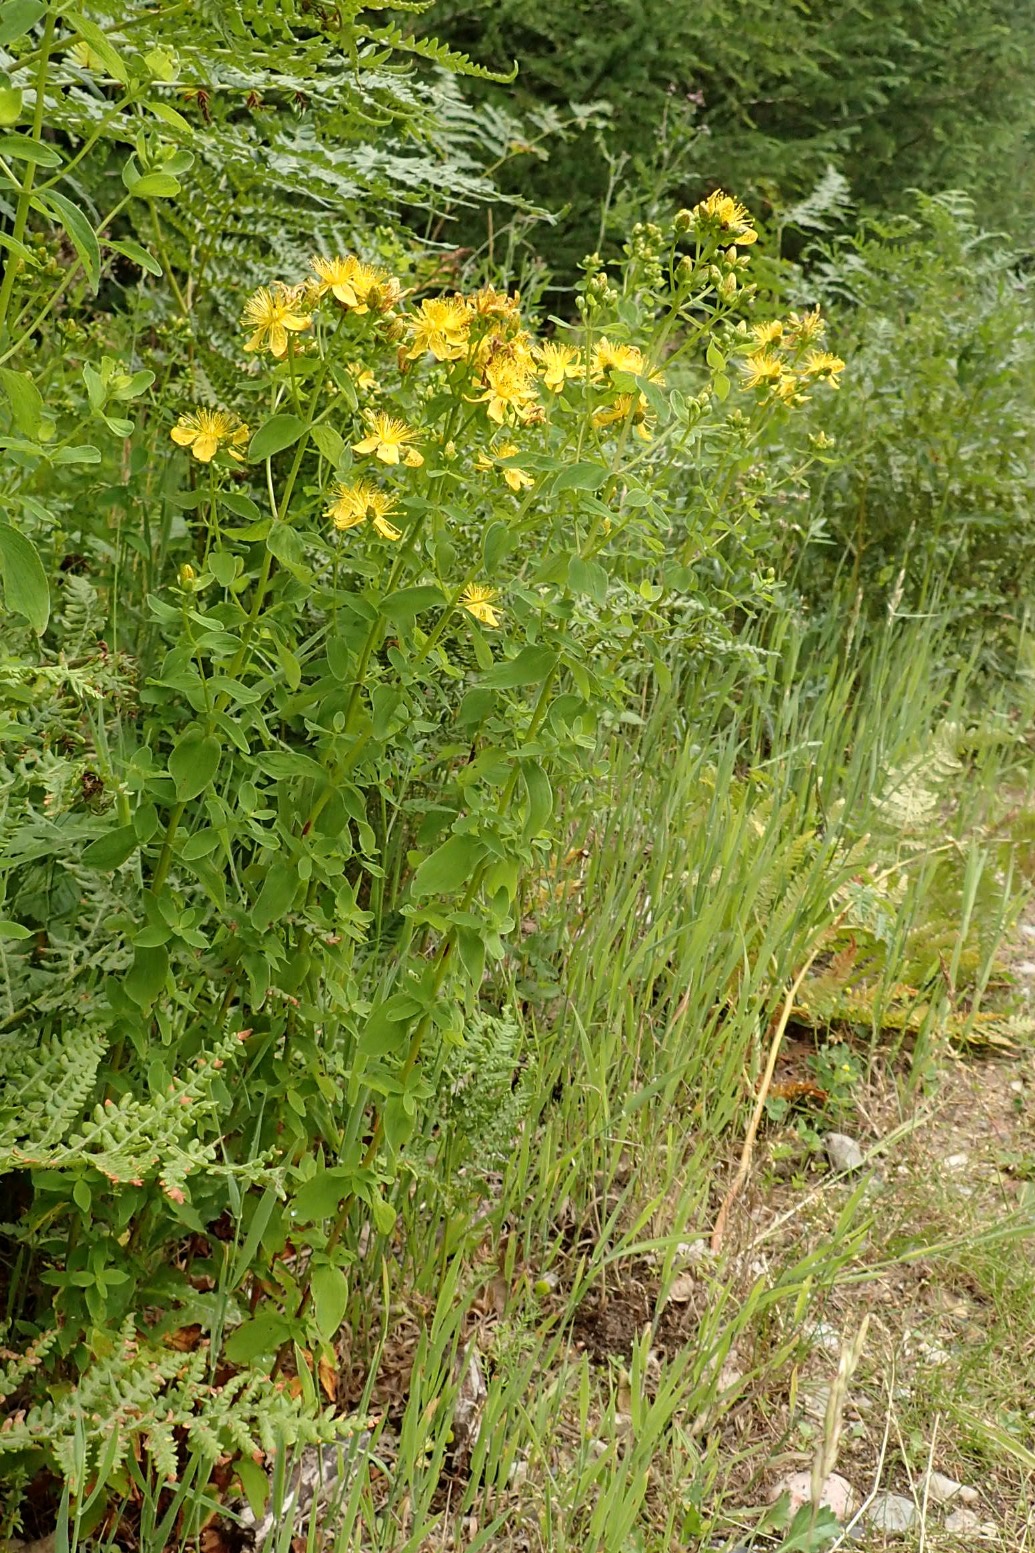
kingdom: Plantae
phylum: Tracheophyta
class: Magnoliopsida
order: Malpighiales
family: Hypericaceae
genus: Hypericum
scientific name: Hypericum maculatum
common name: Kantet perikon
